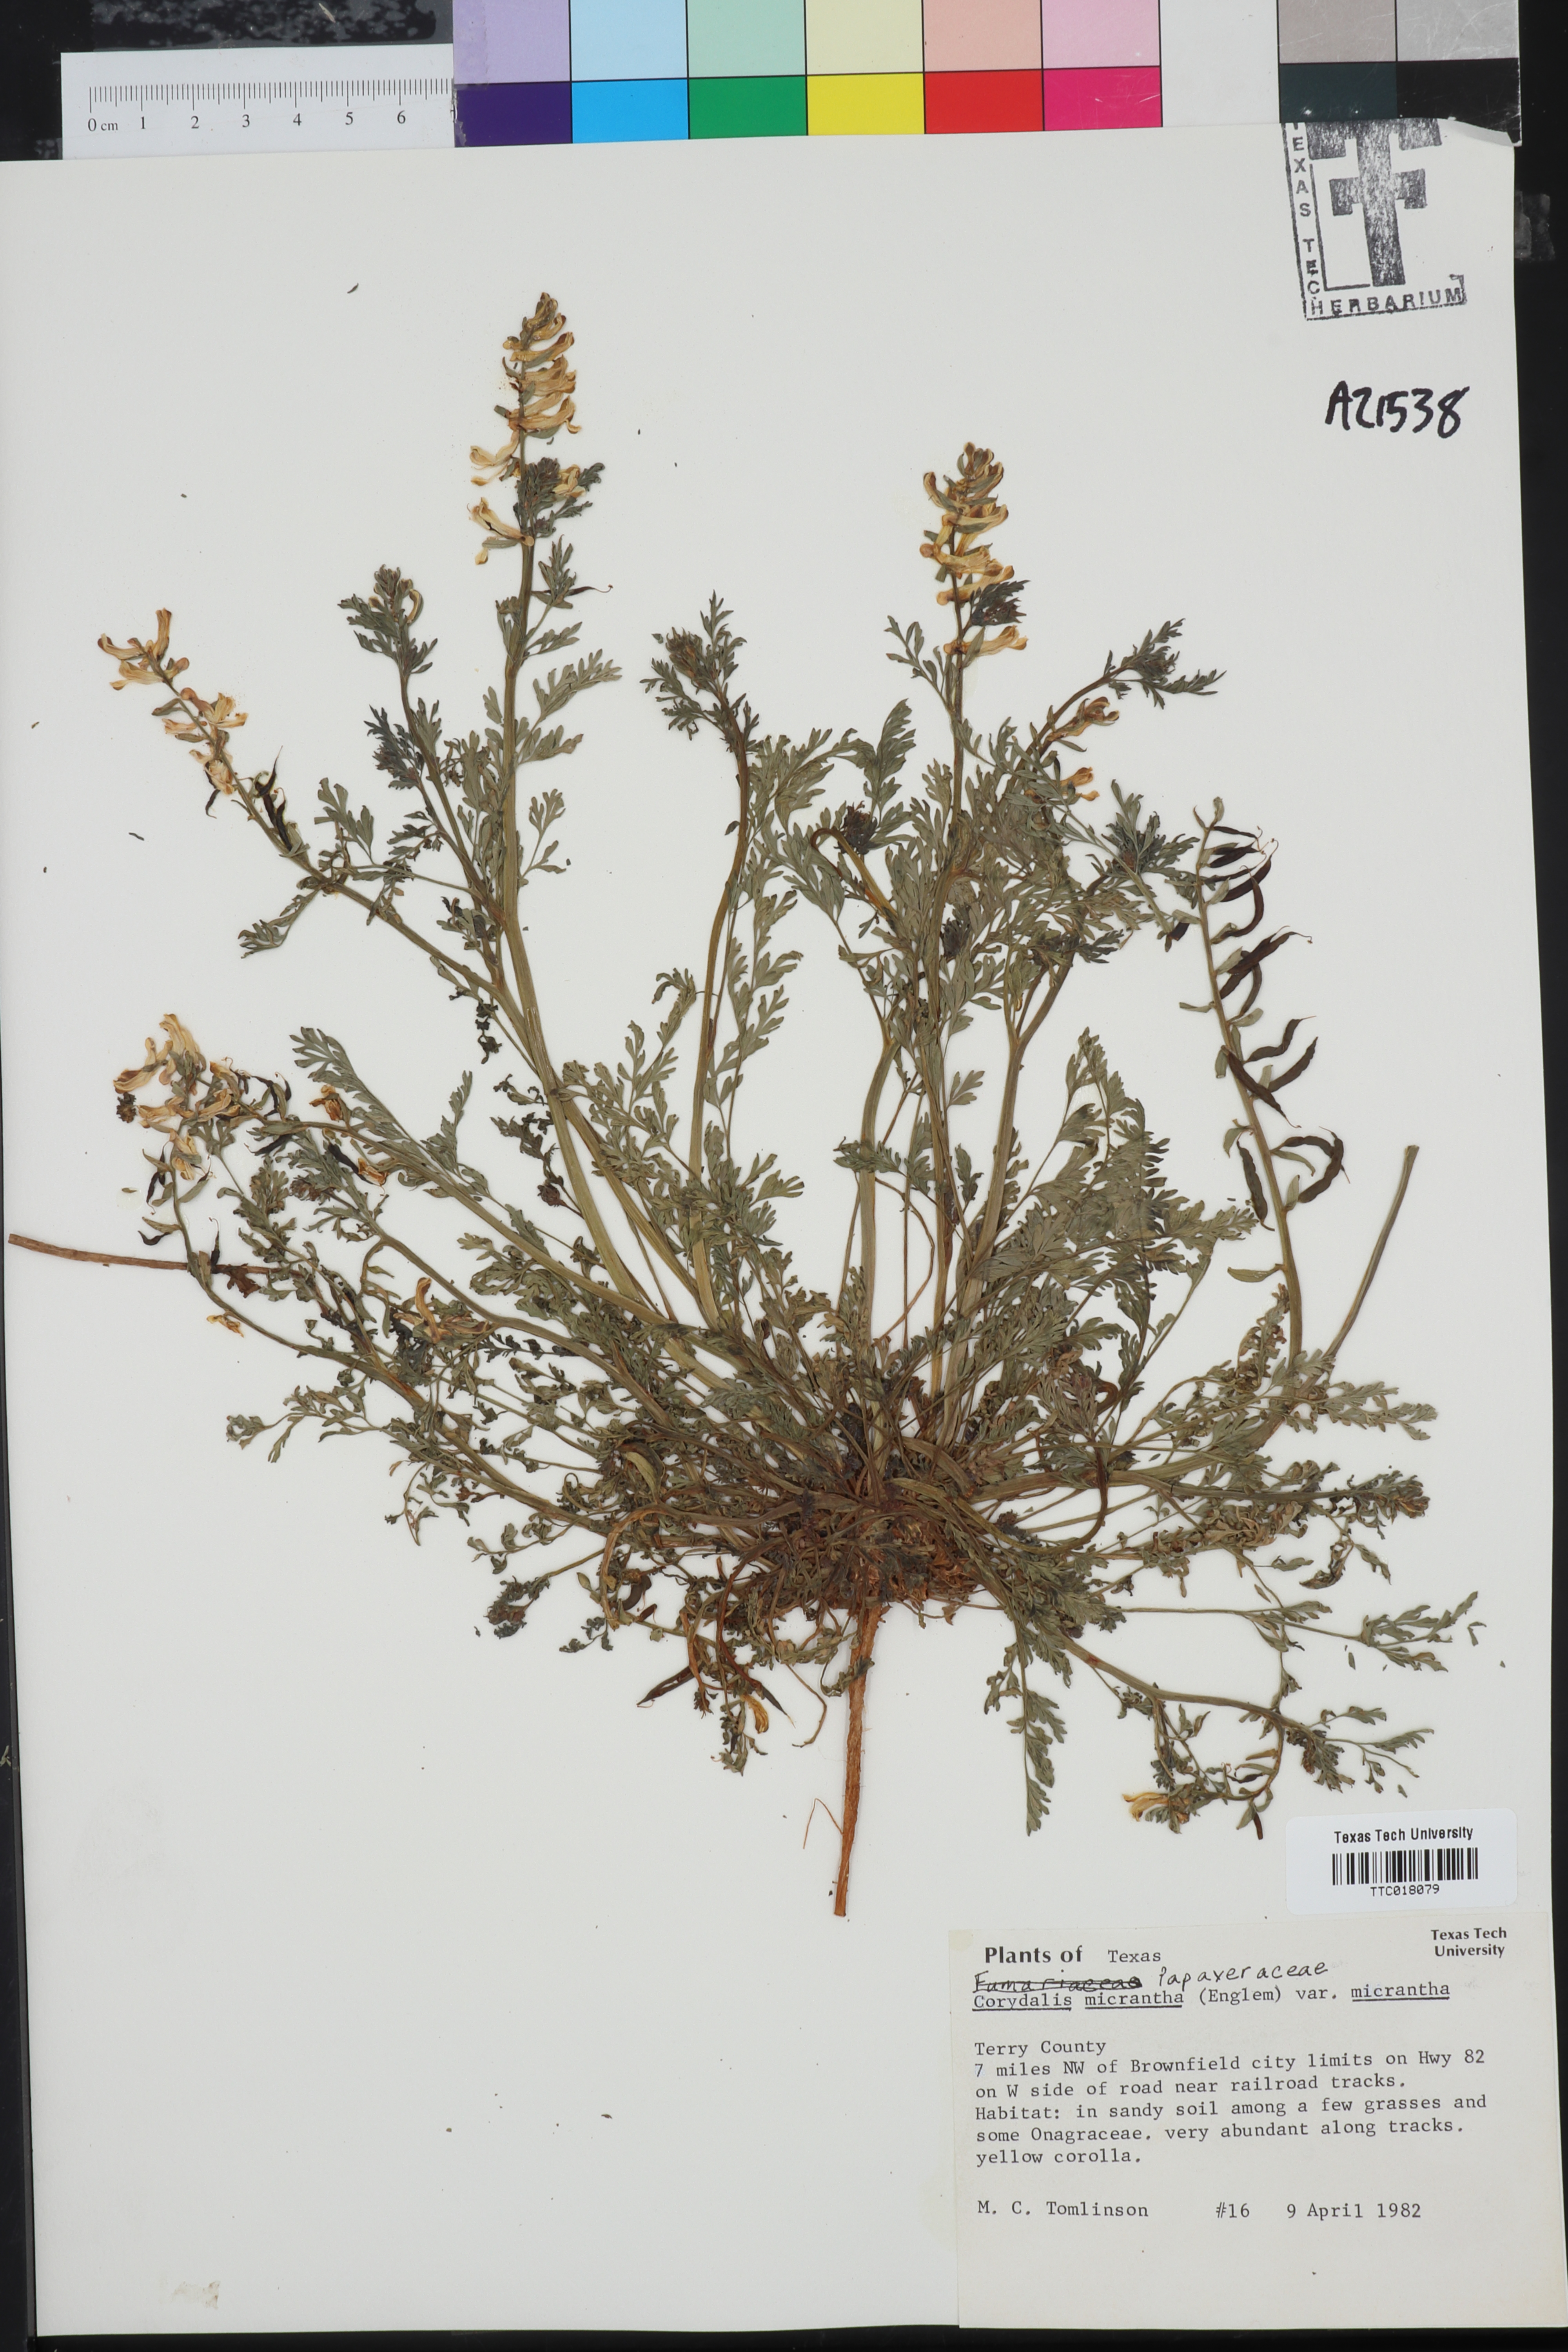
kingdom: Plantae
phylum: Tracheophyta
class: Magnoliopsida
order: Ranunculales
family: Papaveraceae
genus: Corydalis
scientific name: Corydalis micrantha
